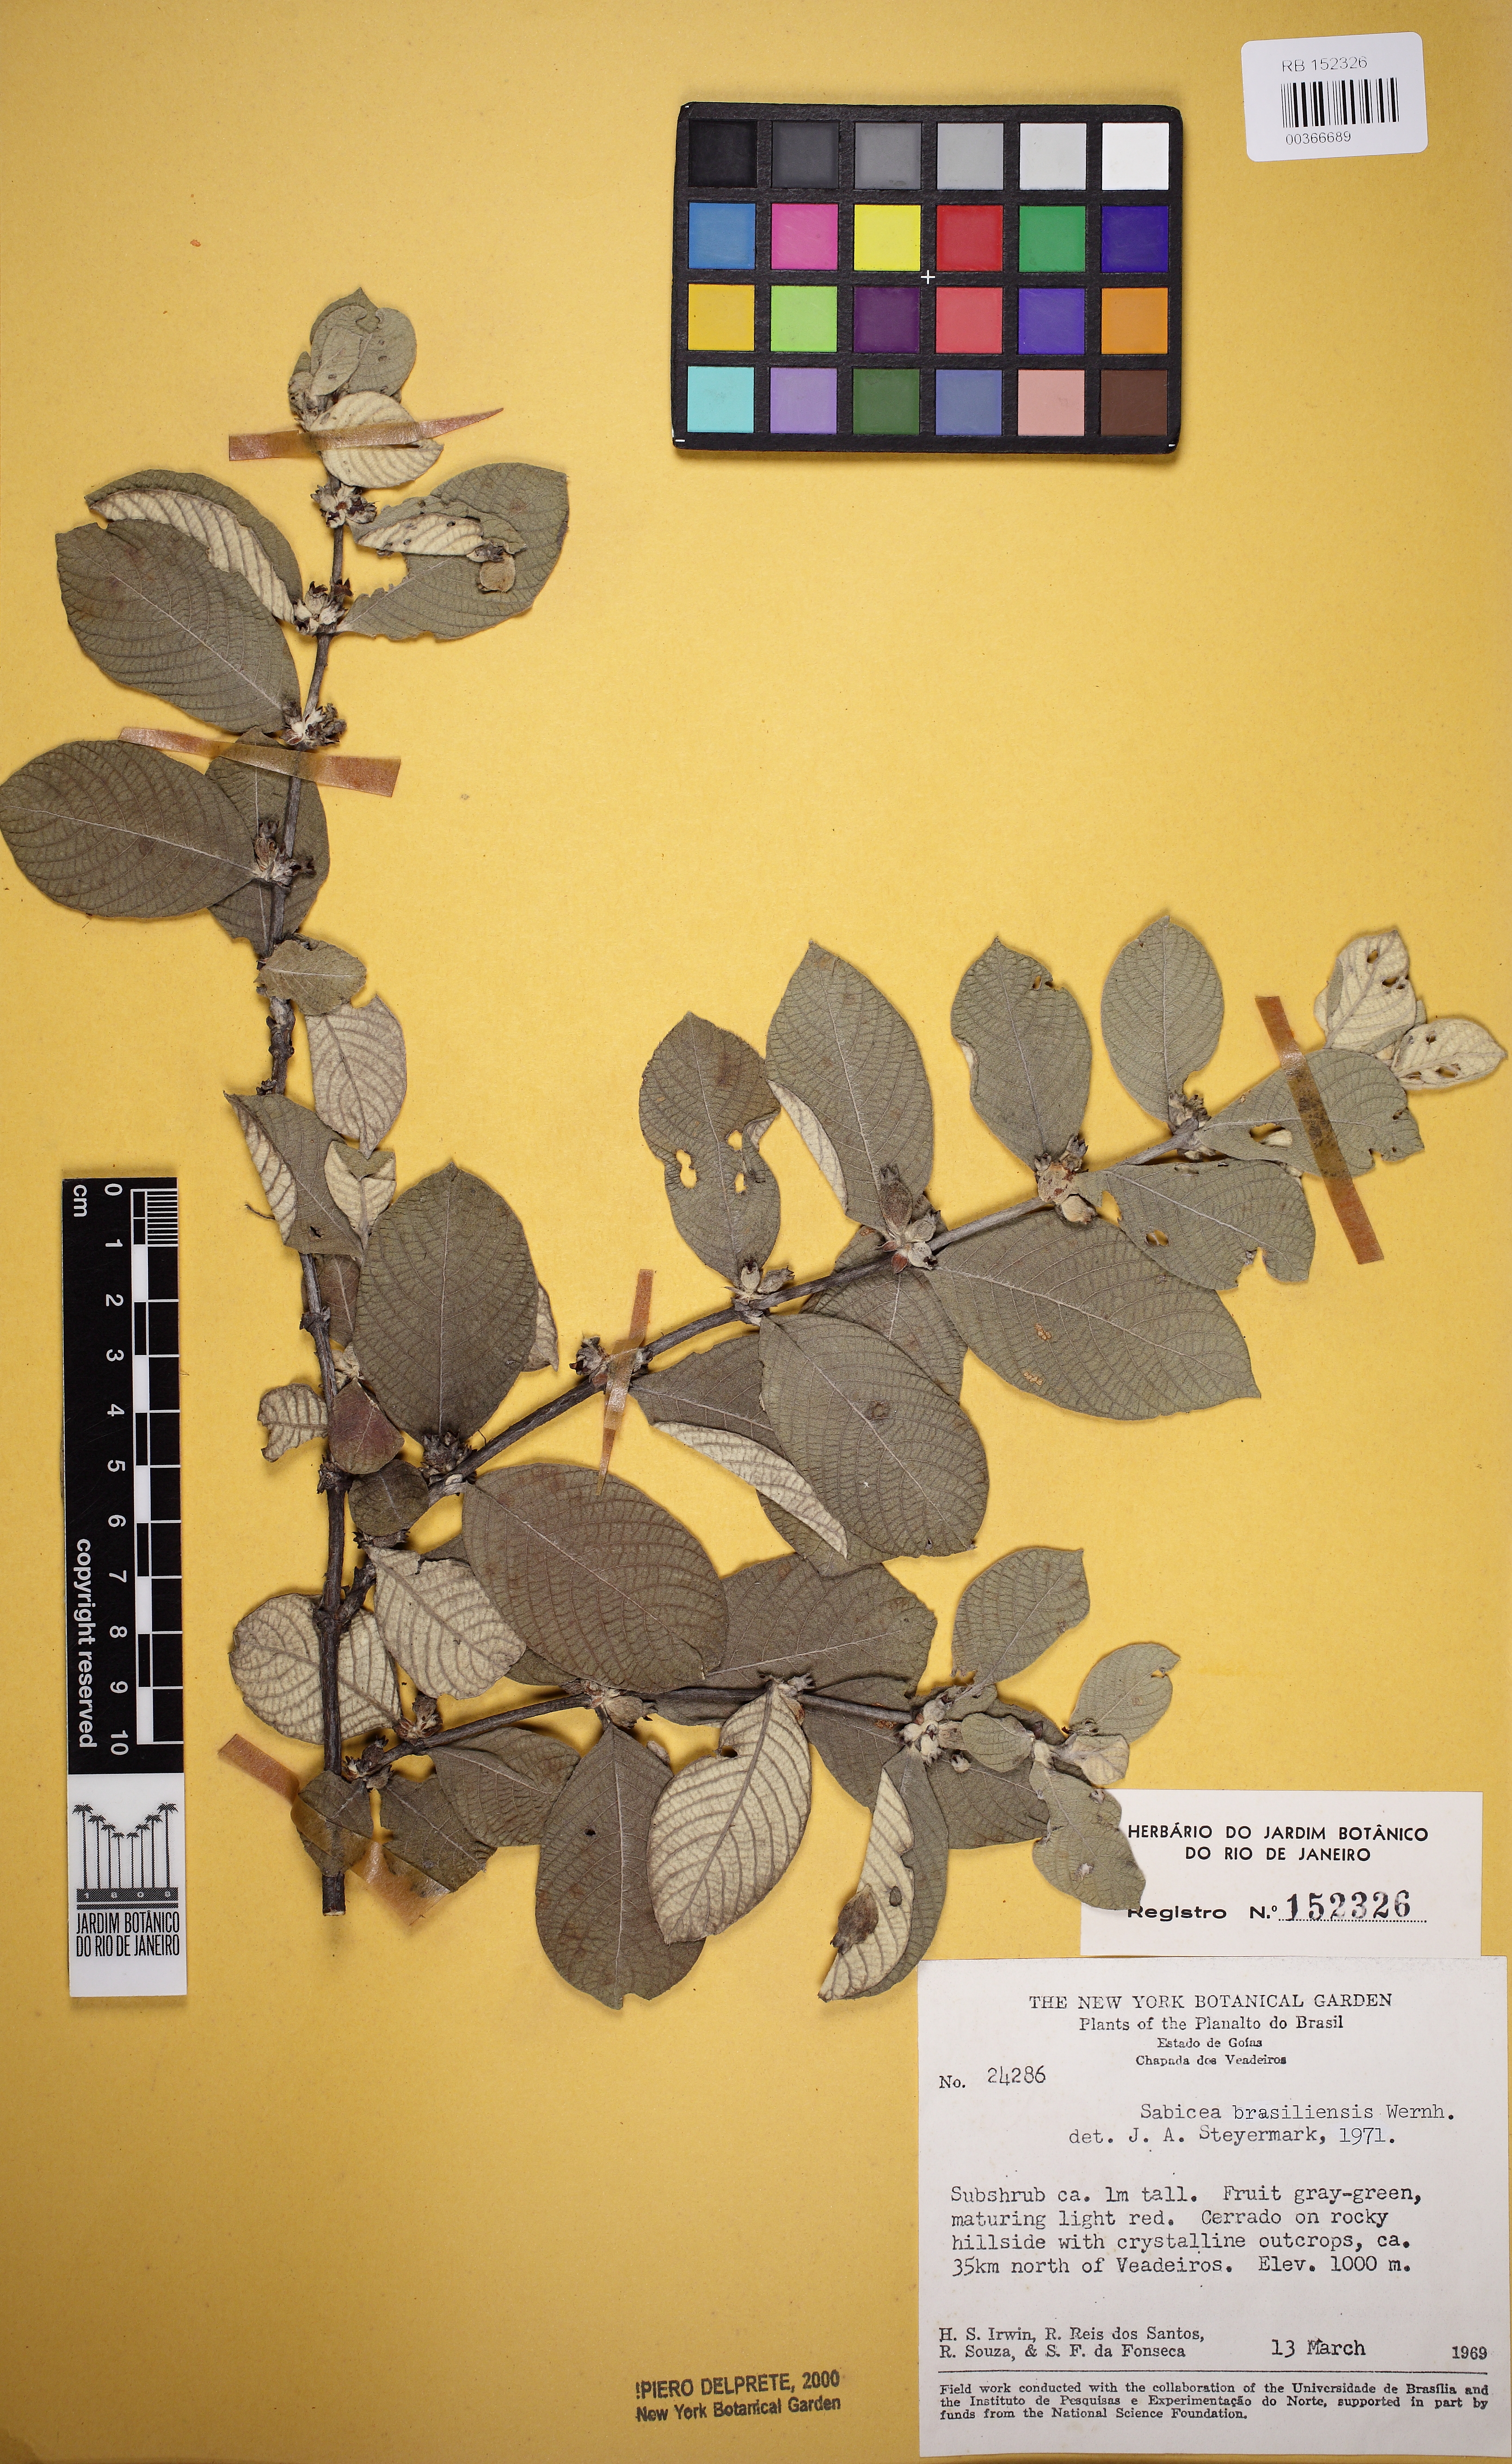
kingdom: Plantae
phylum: Tracheophyta
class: Magnoliopsida
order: Gentianales
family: Rubiaceae
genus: Sabicea
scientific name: Sabicea brasiliensis
